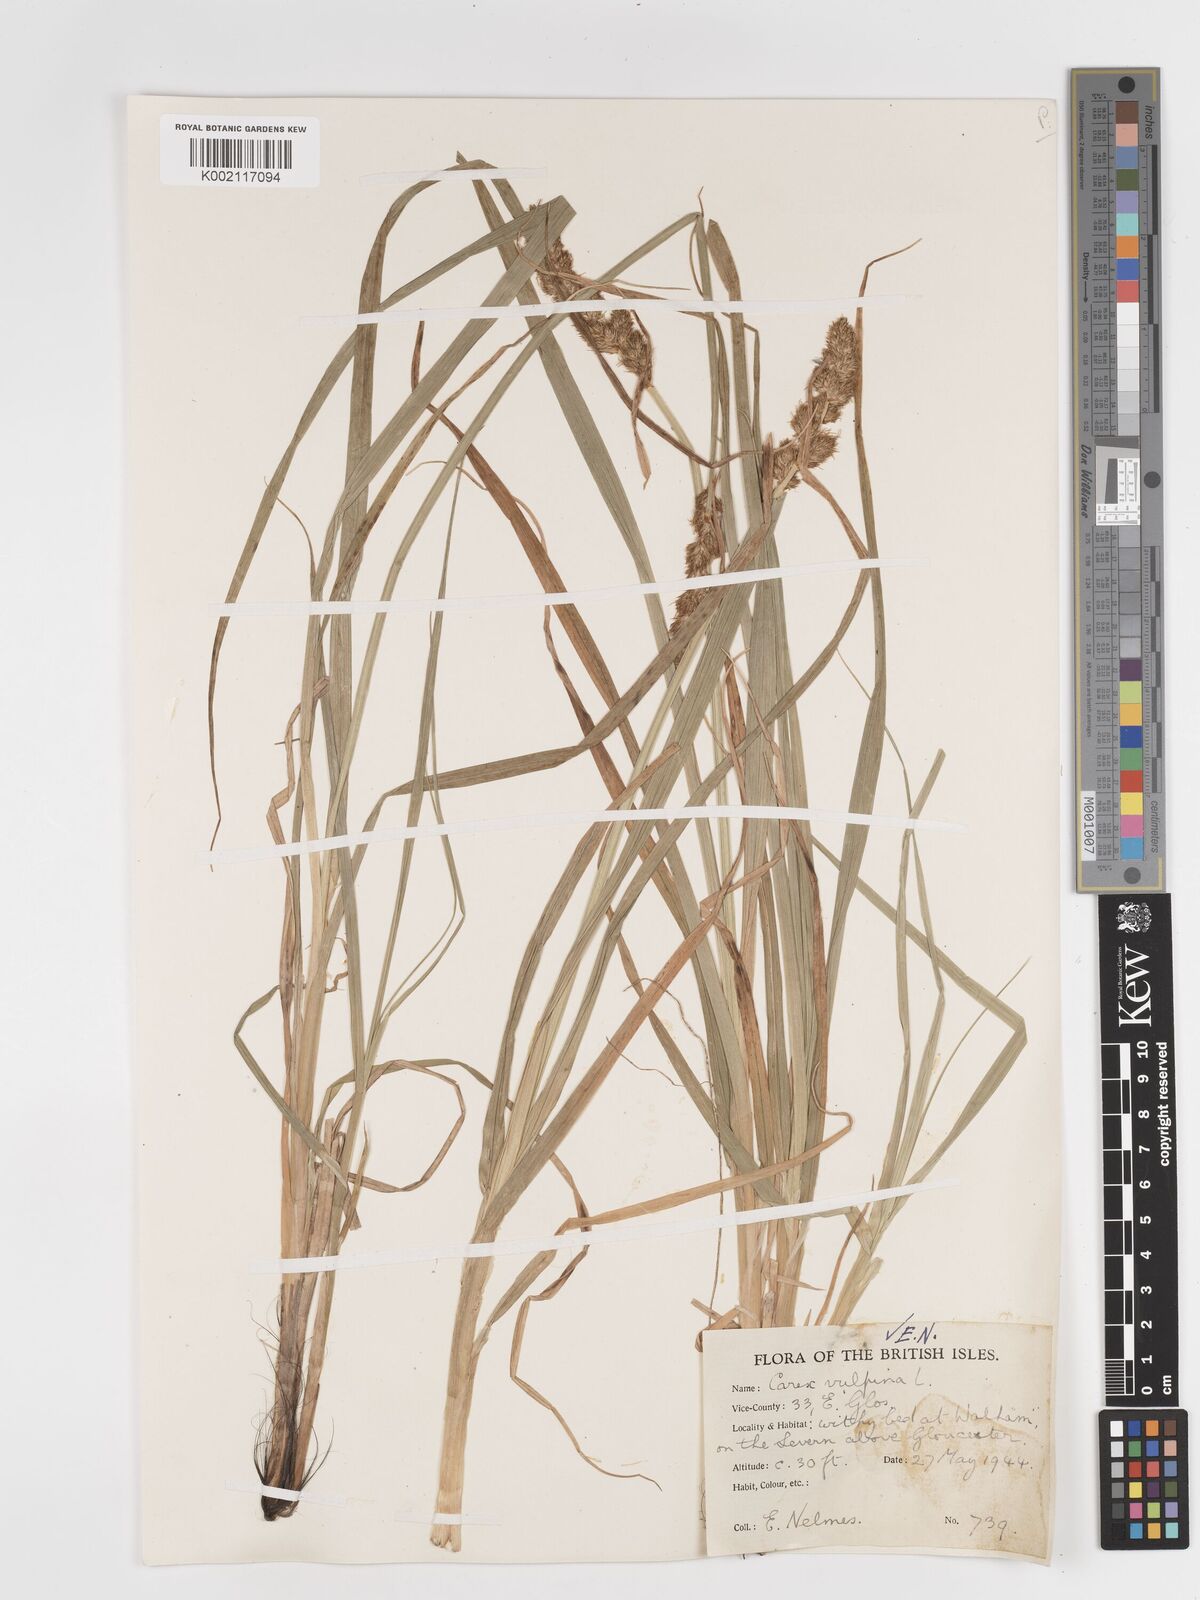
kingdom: Plantae
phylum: Tracheophyta
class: Liliopsida
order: Poales
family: Cyperaceae
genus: Carex
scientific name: Carex vulpina
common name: True fox-sedge
